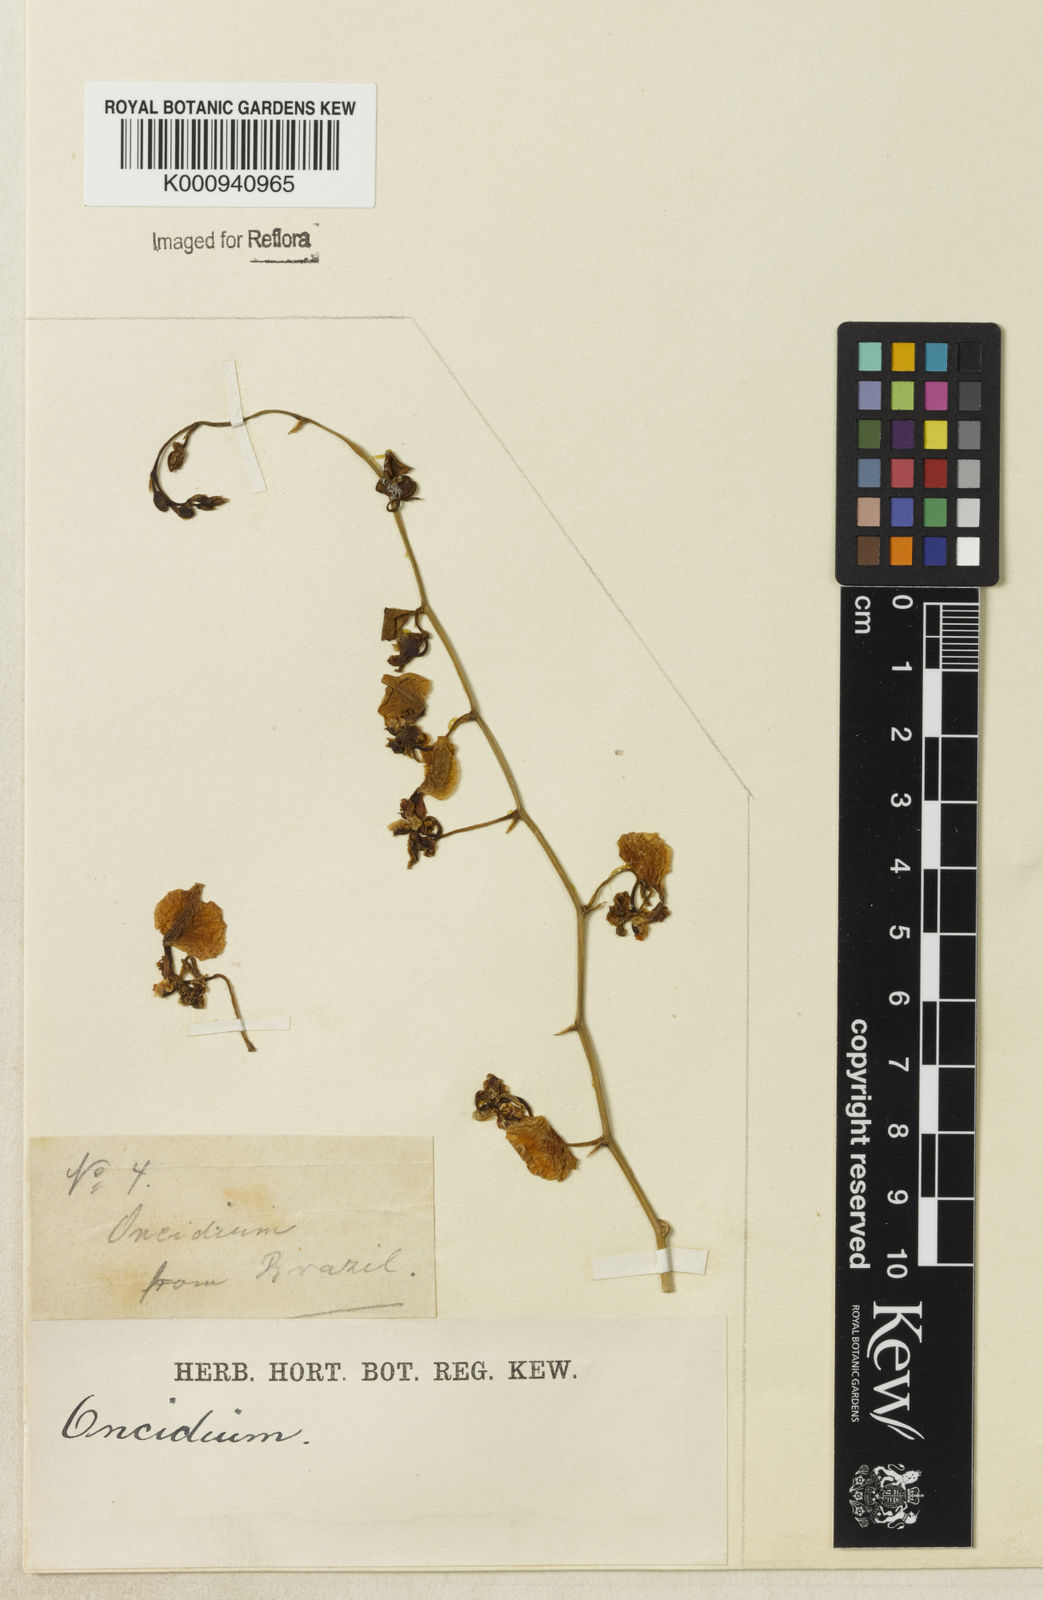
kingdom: Plantae
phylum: Tracheophyta
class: Liliopsida
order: Asparagales
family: Orchidaceae
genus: Oncidium
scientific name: Oncidium
